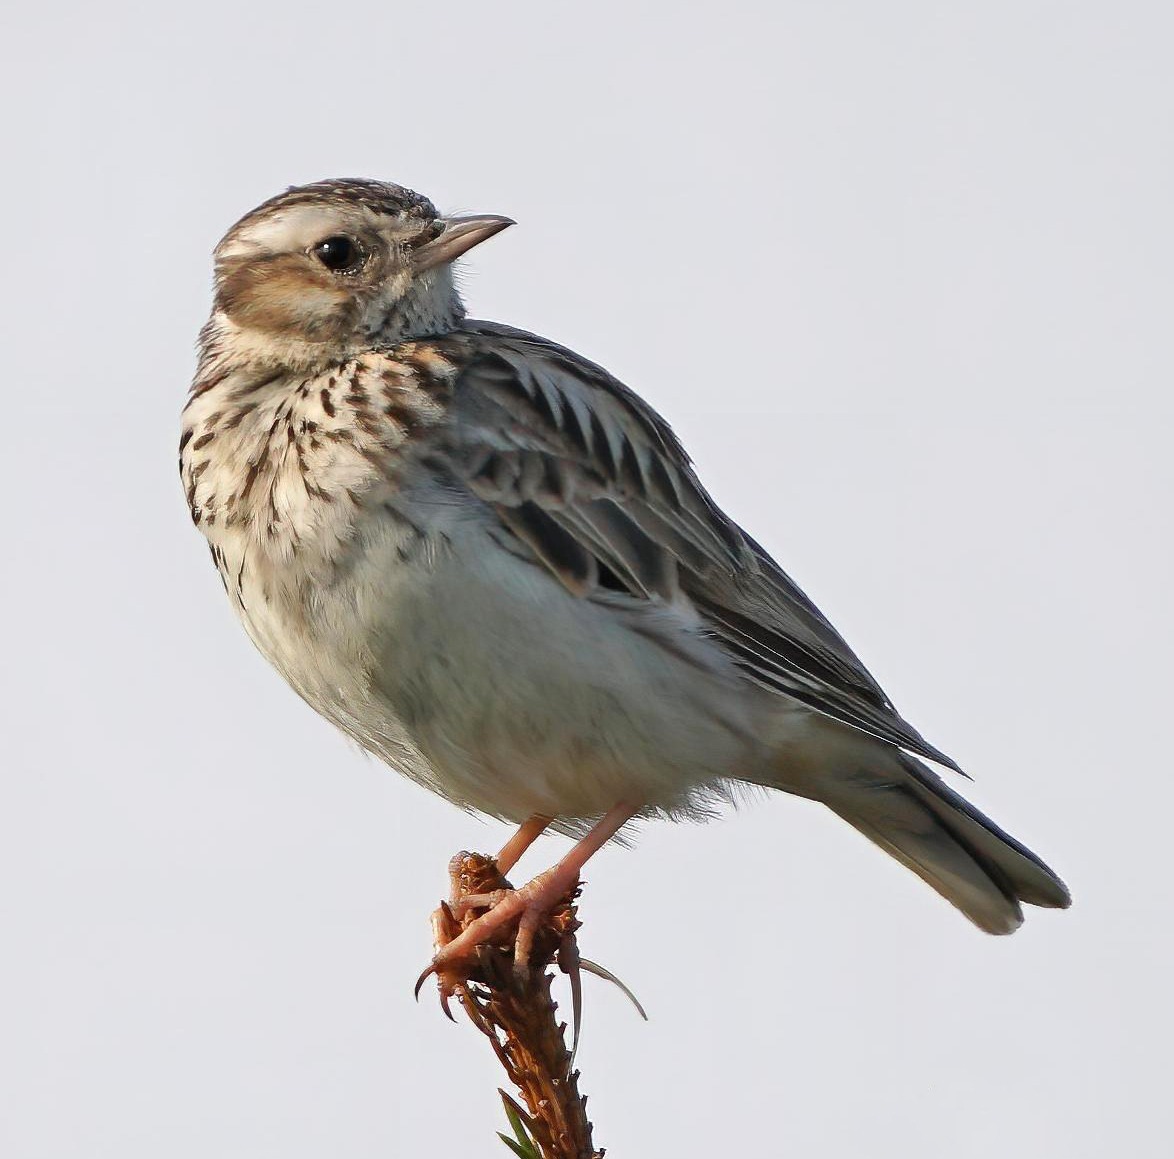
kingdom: Animalia
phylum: Chordata
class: Aves
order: Passeriformes
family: Alaudidae
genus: Lullula
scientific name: Lullula arborea
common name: Hedelærke
